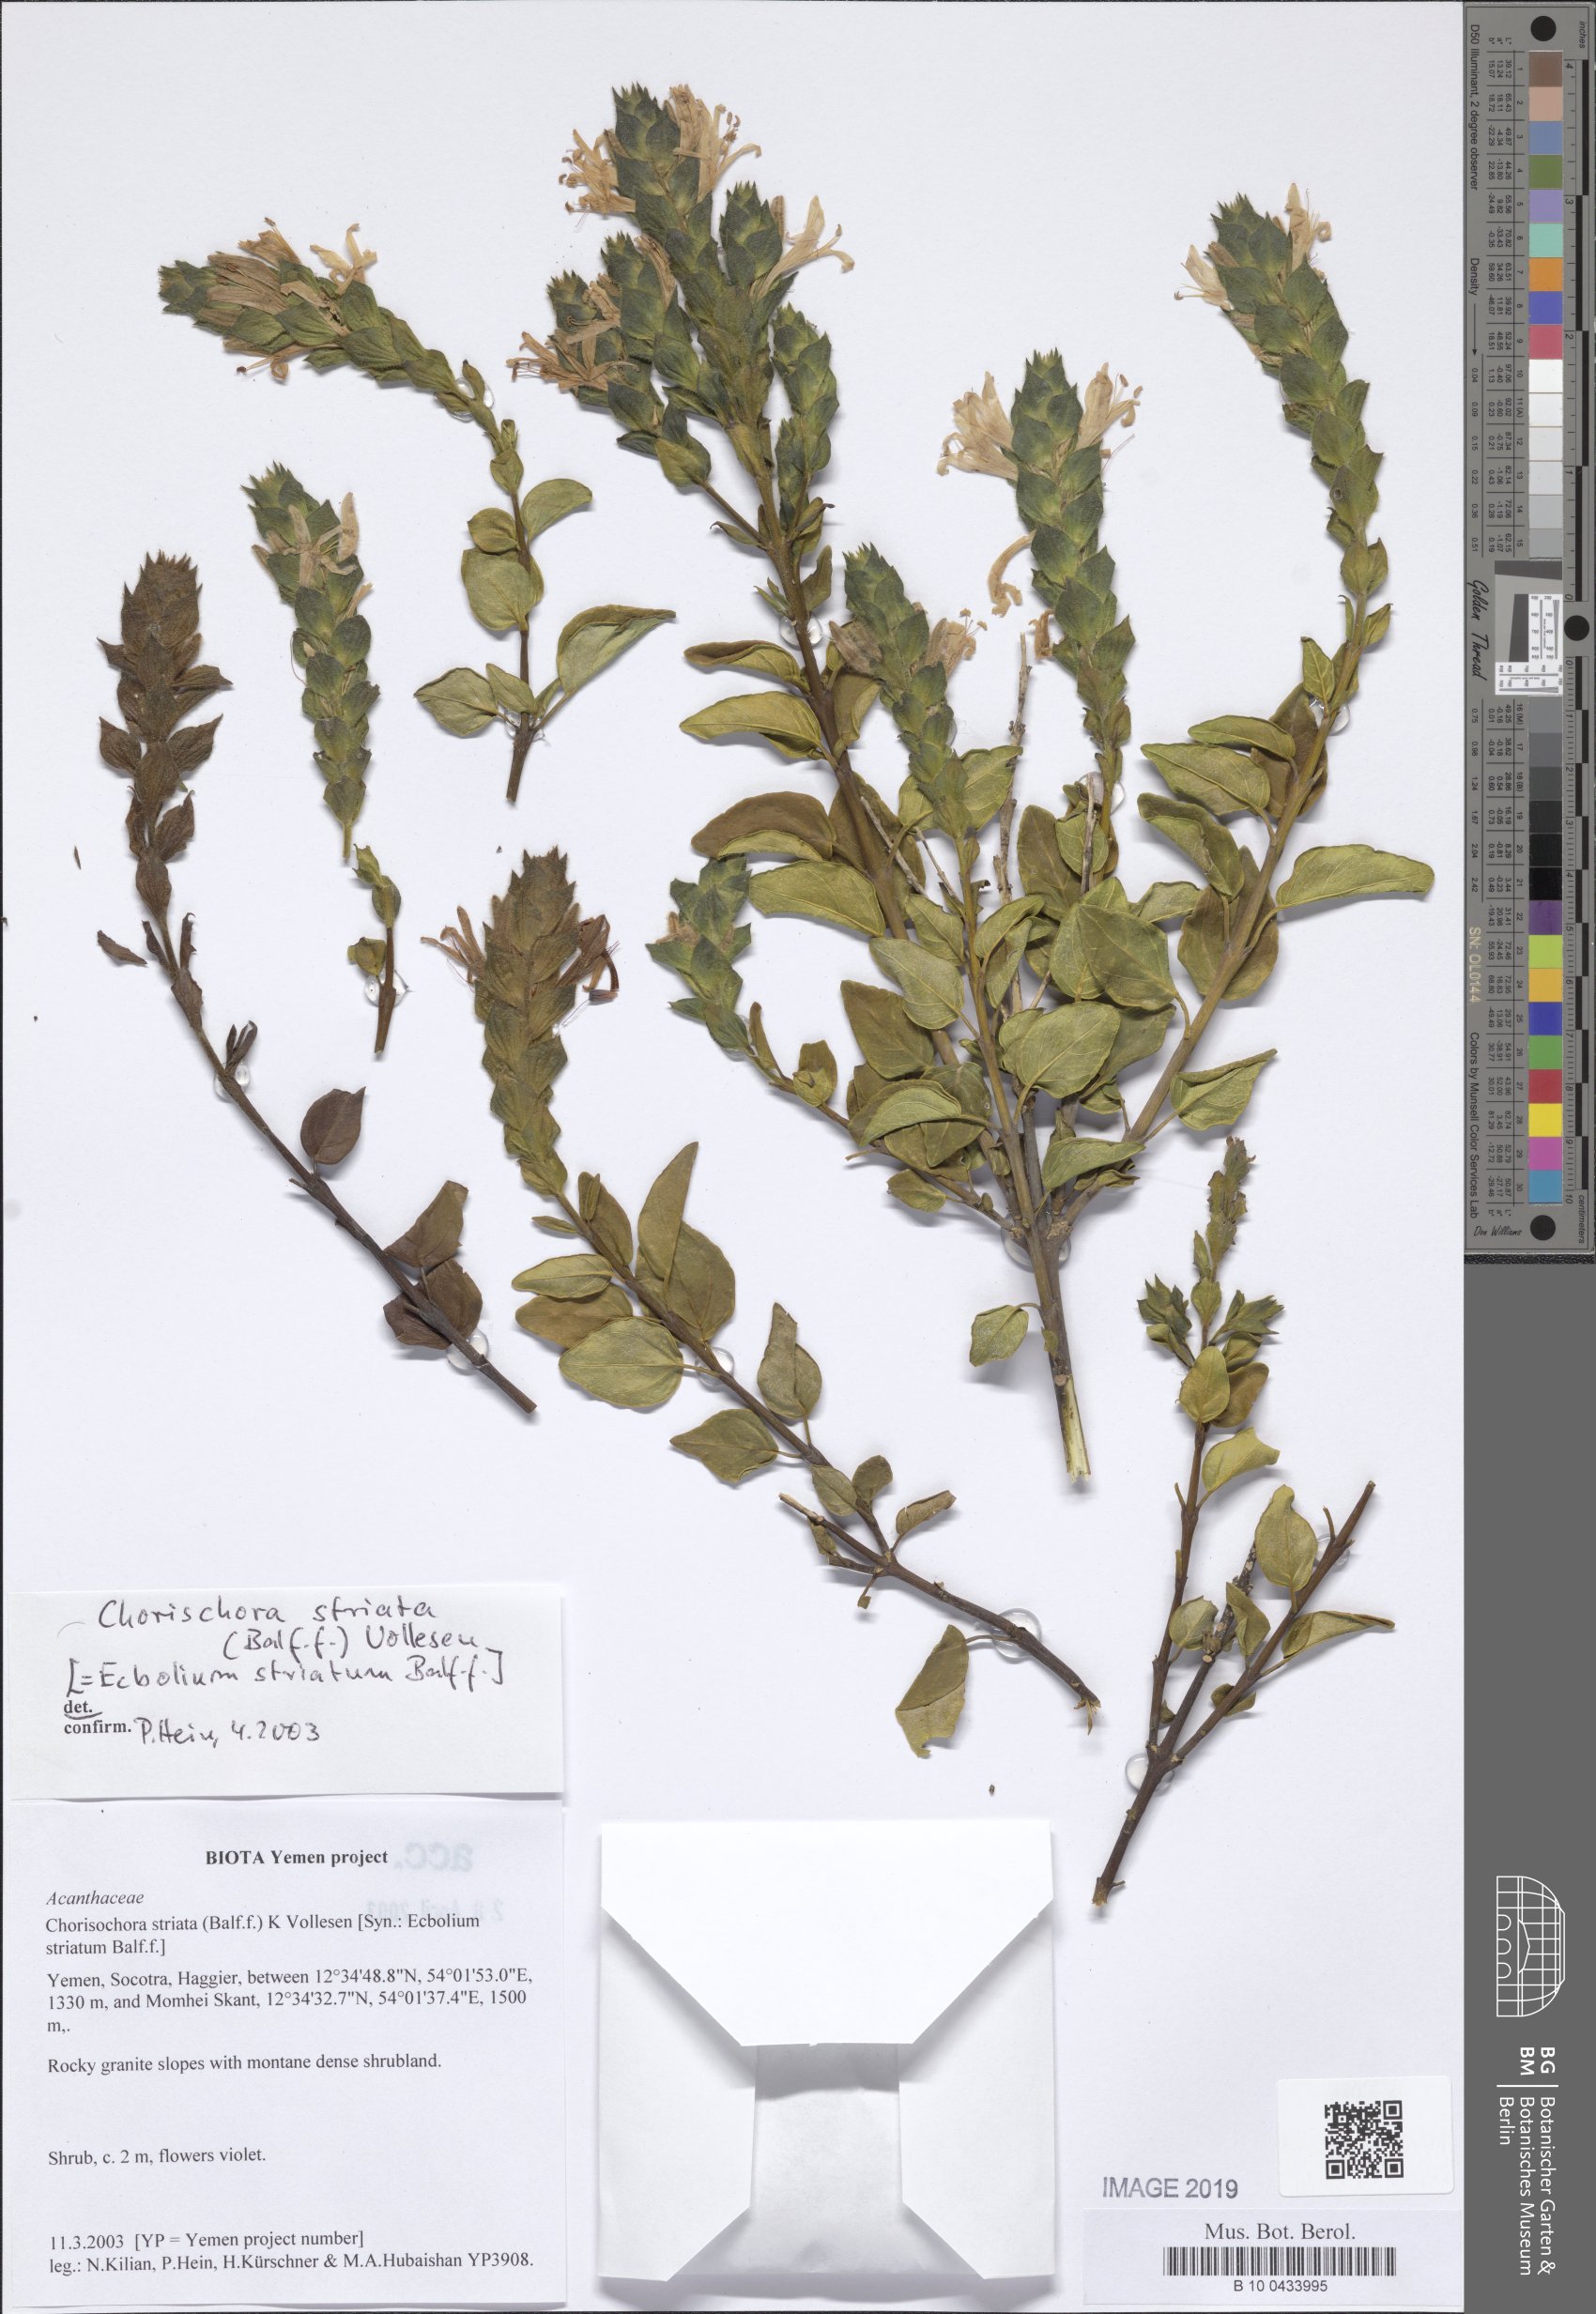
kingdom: Plantae
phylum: Tracheophyta
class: Magnoliopsida
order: Lamiales
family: Acanthaceae
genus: Chorisochora
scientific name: Chorisochora striata
